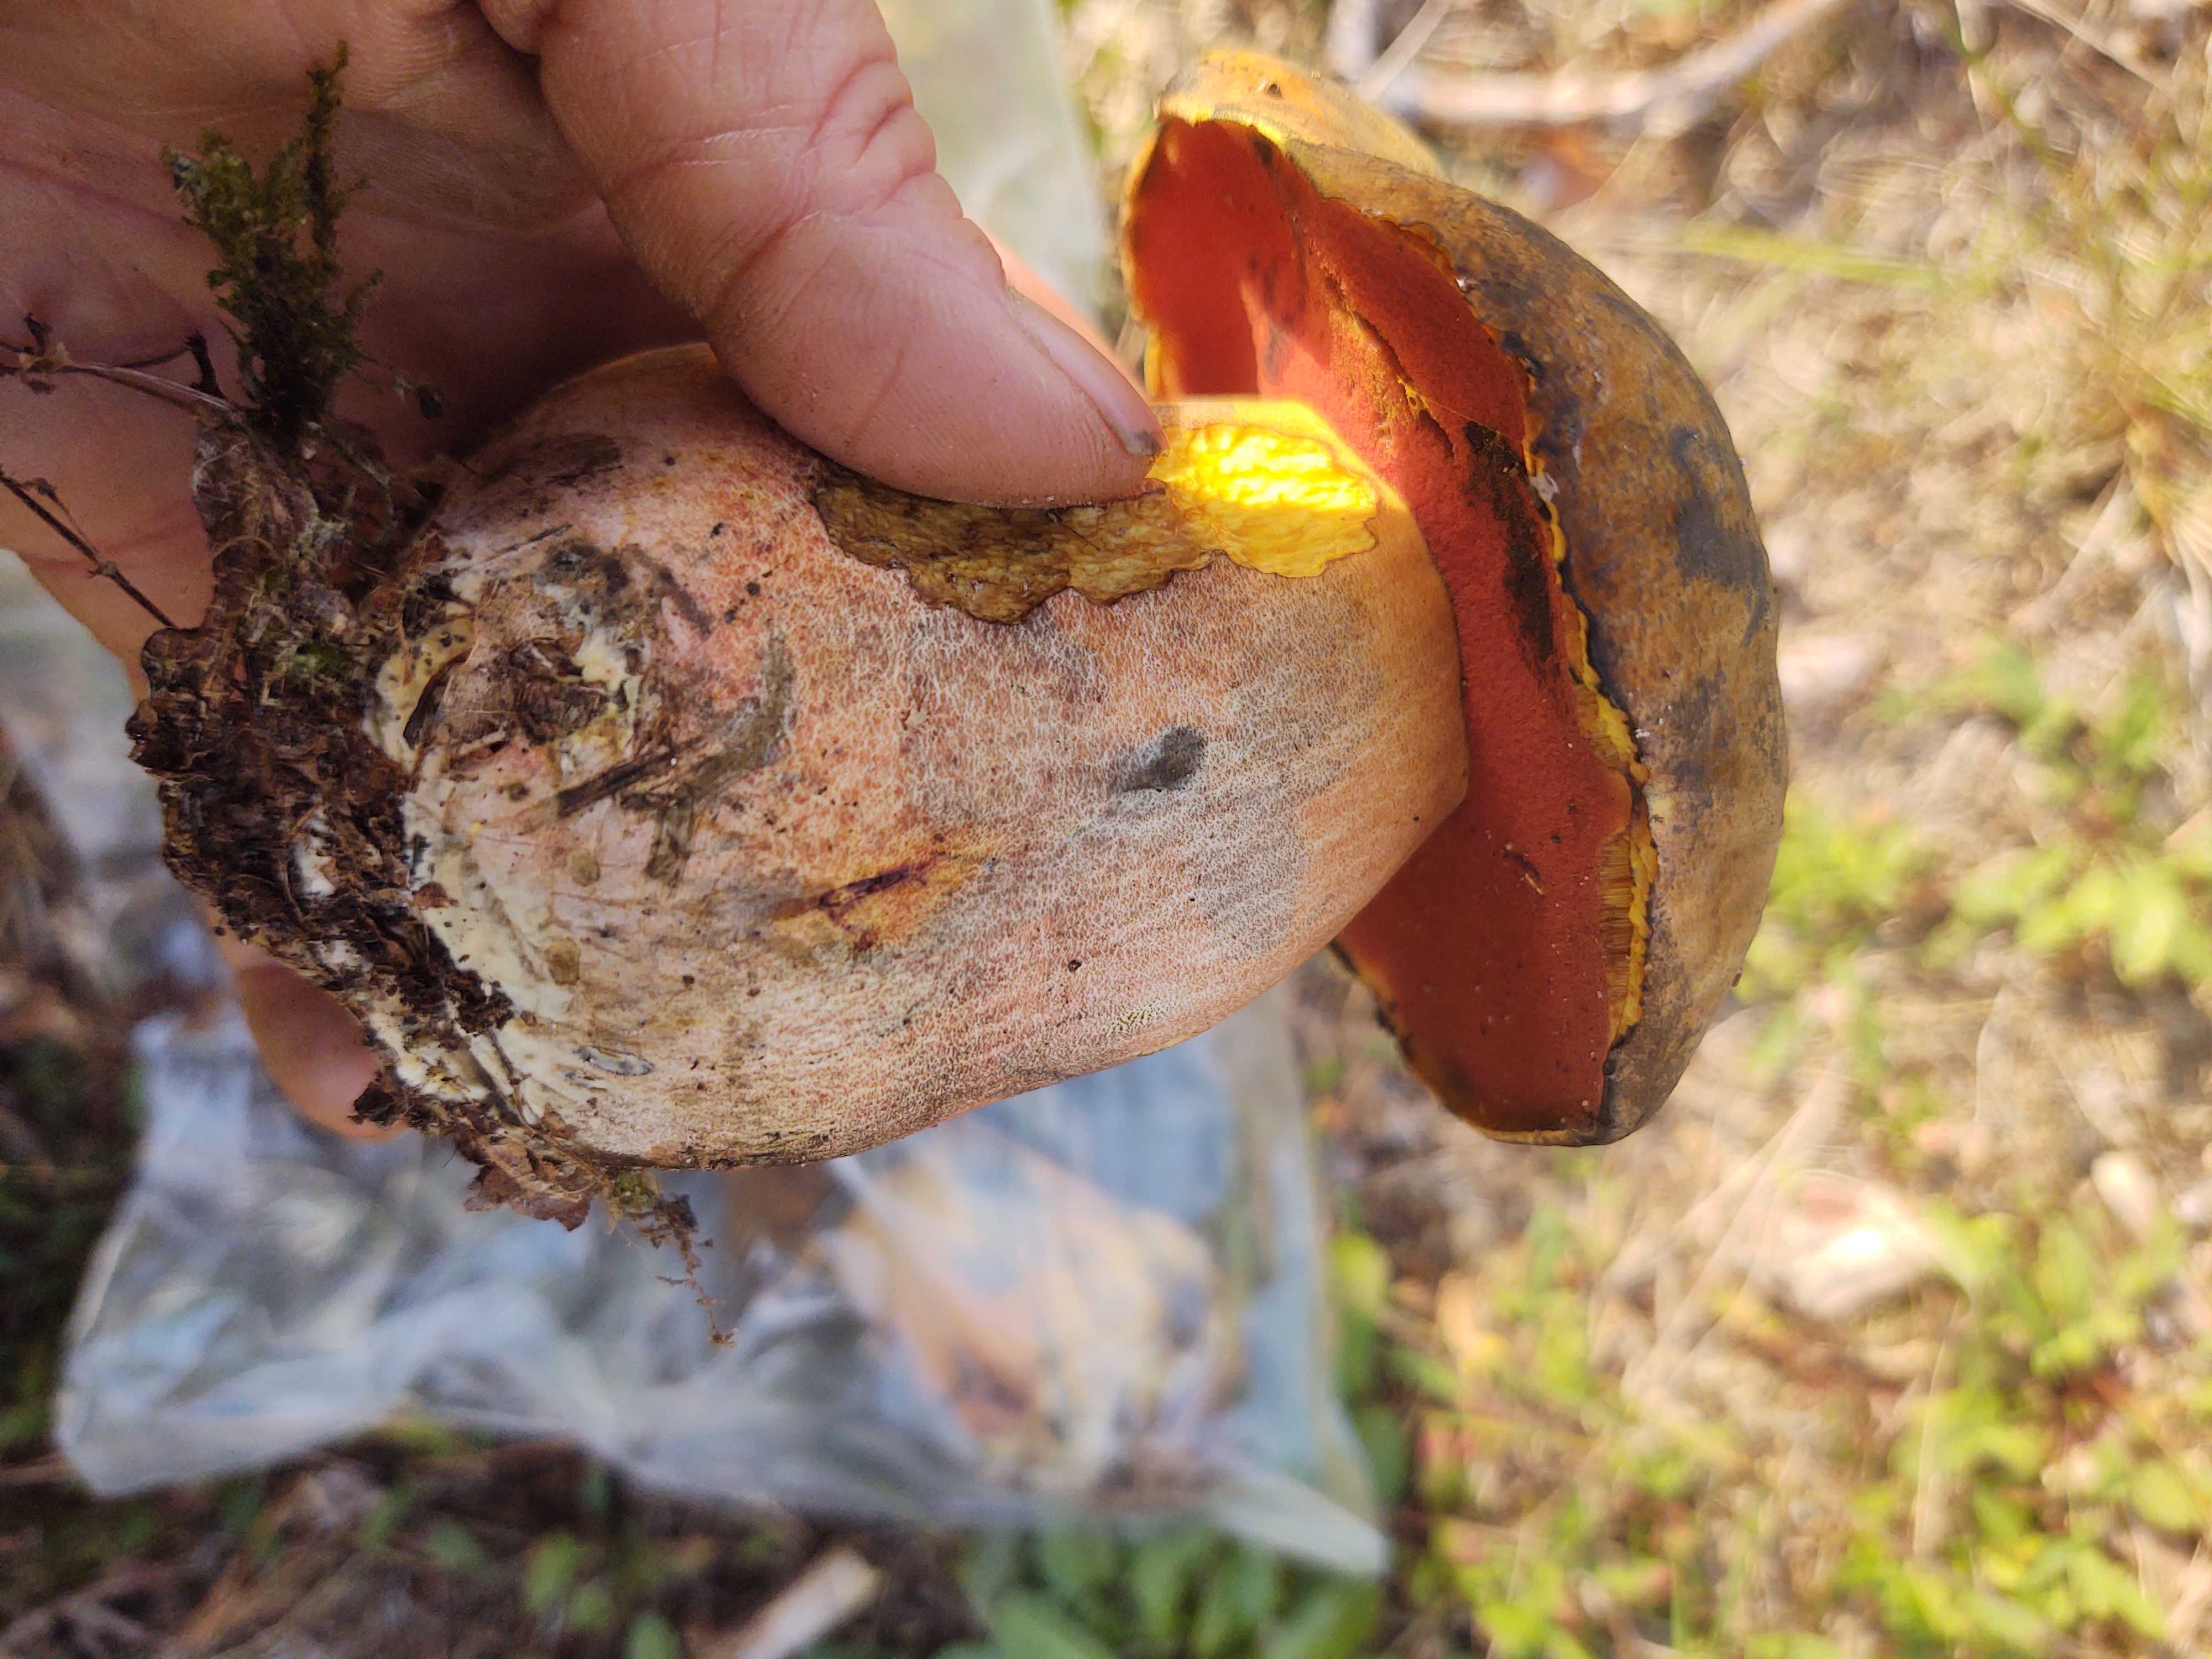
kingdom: Fungi
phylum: Basidiomycota
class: Agaricomycetes
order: Boletales
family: Boletaceae
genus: Neoboletus
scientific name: Neoboletus erythropus
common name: punktstokket indigorørhat
